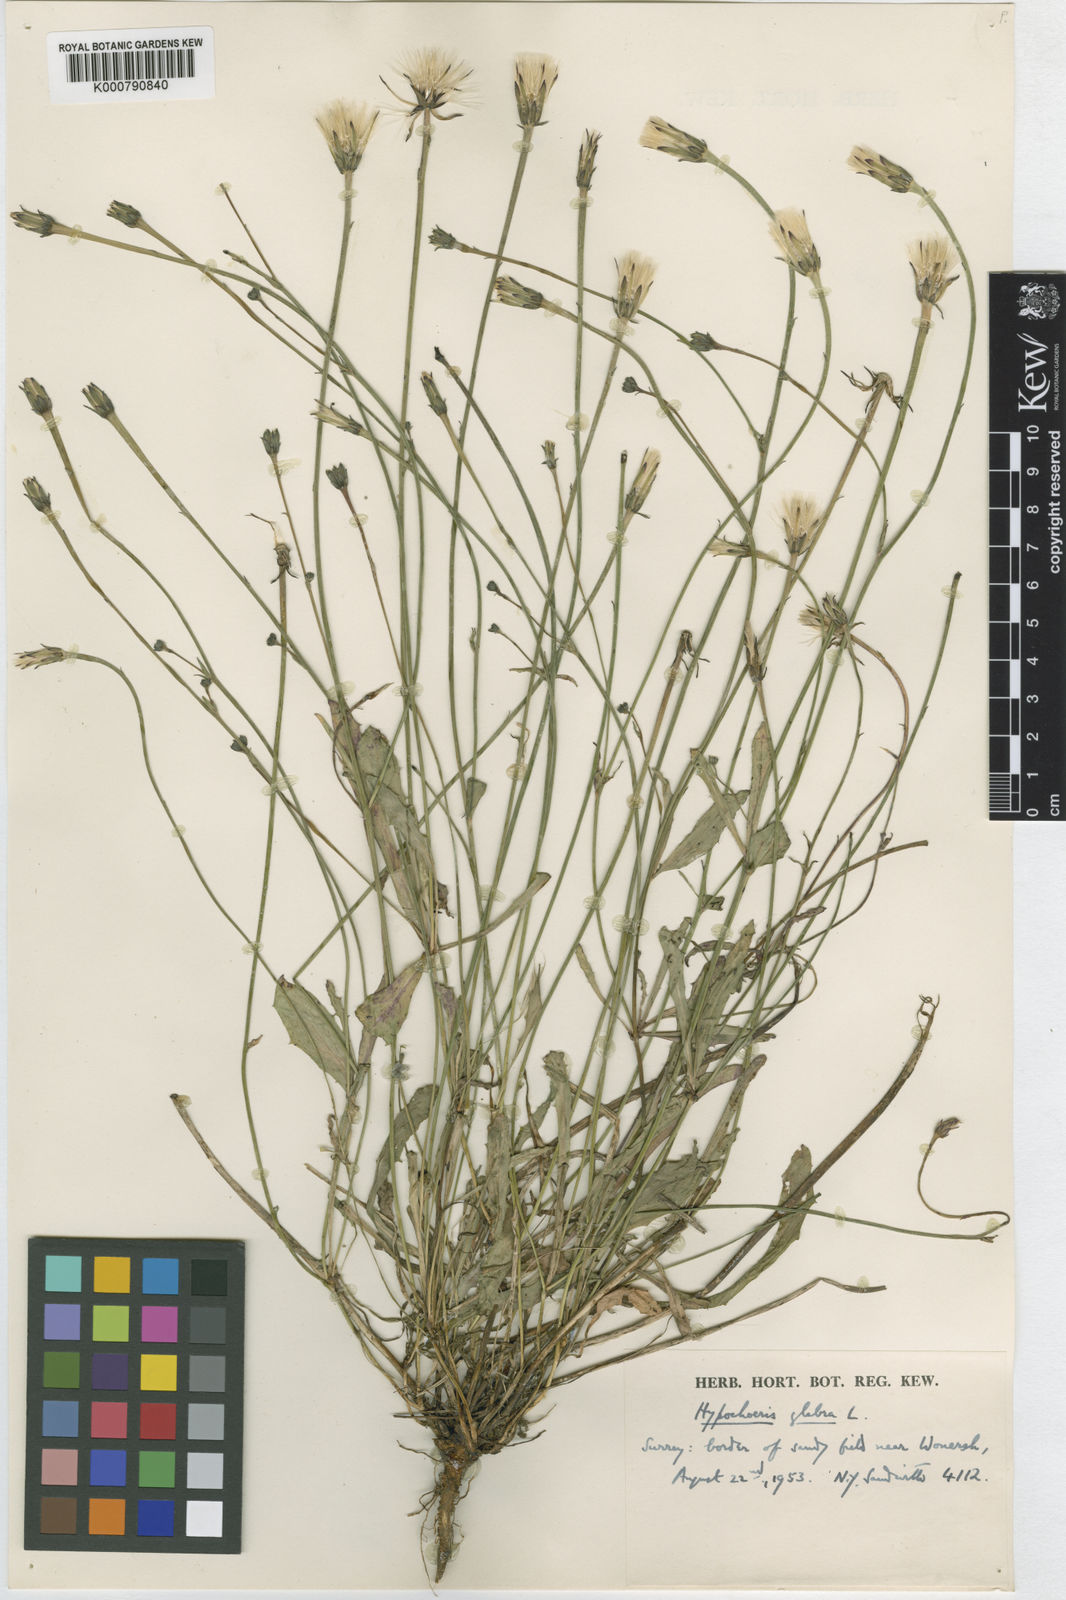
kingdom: Plantae
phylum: Tracheophyta
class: Magnoliopsida
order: Asterales
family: Asteraceae
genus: Hypochaeris
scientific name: Hypochaeris glabra
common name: Smooth catsear
